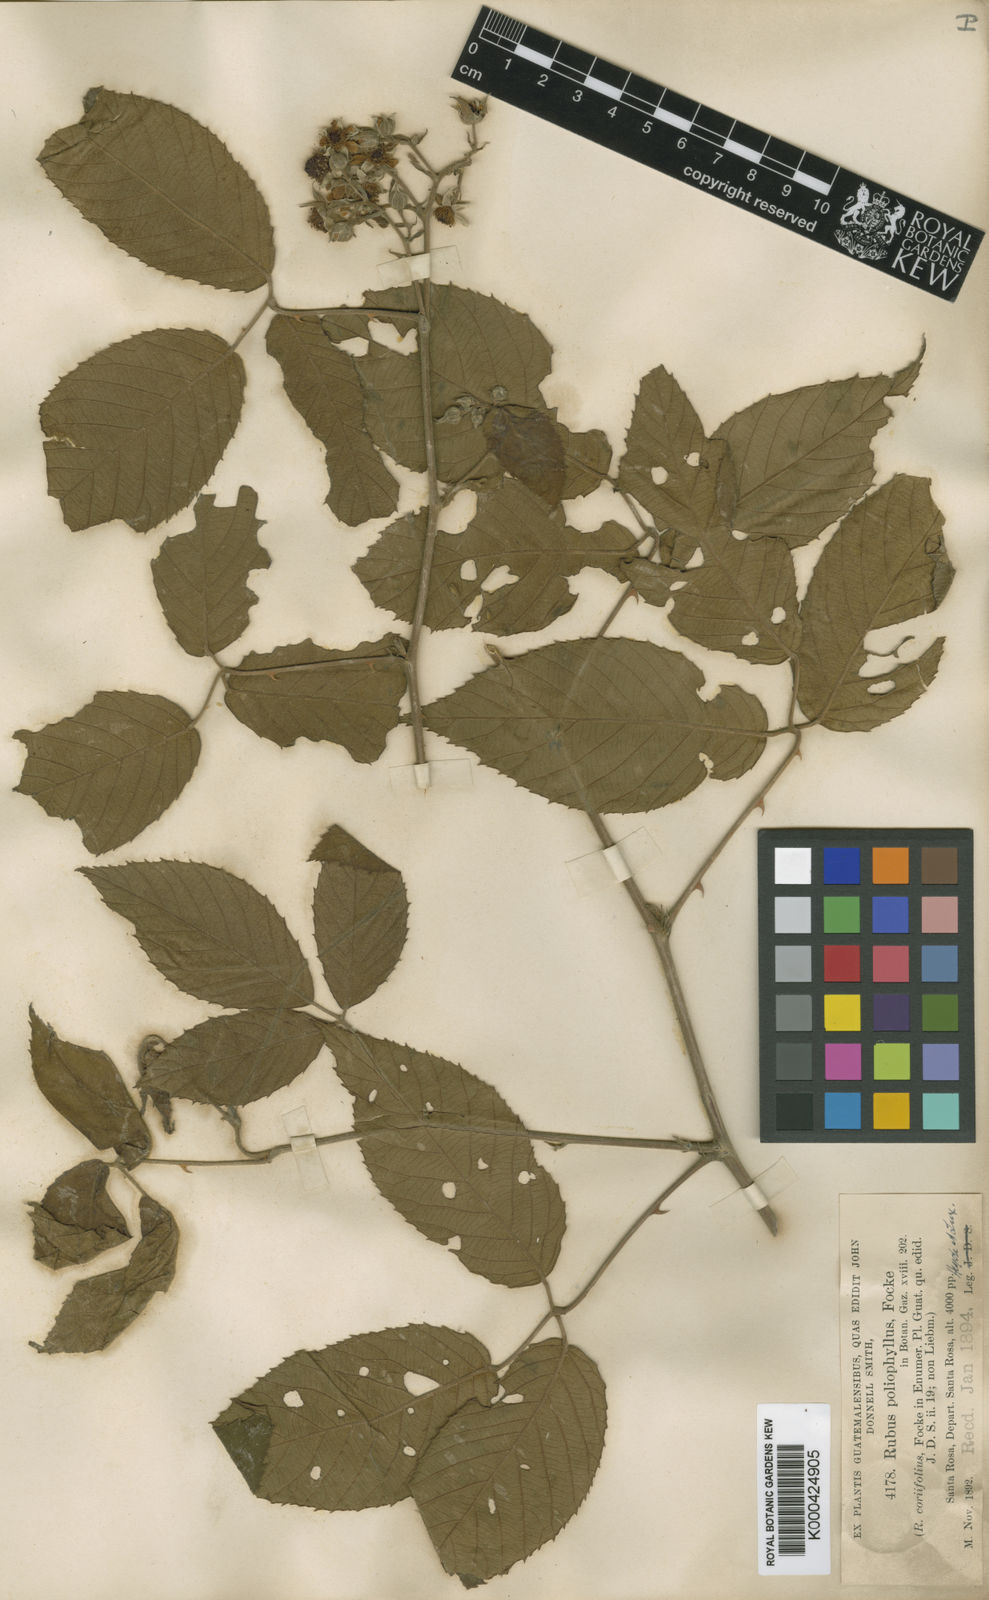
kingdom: Plantae
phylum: Tracheophyta
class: Magnoliopsida
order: Rosales
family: Rosaceae
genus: Rubus
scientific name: Rubus miser
